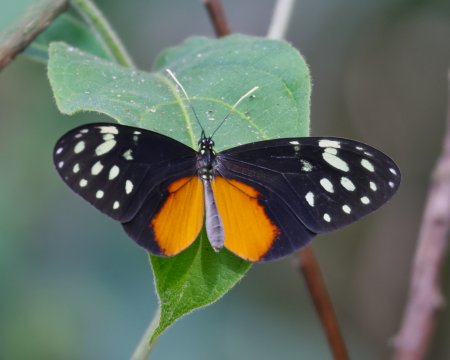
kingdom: Animalia
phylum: Arthropoda
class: Insecta
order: Lepidoptera
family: Nymphalidae
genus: Callithomia
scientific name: Callithomia hezia
